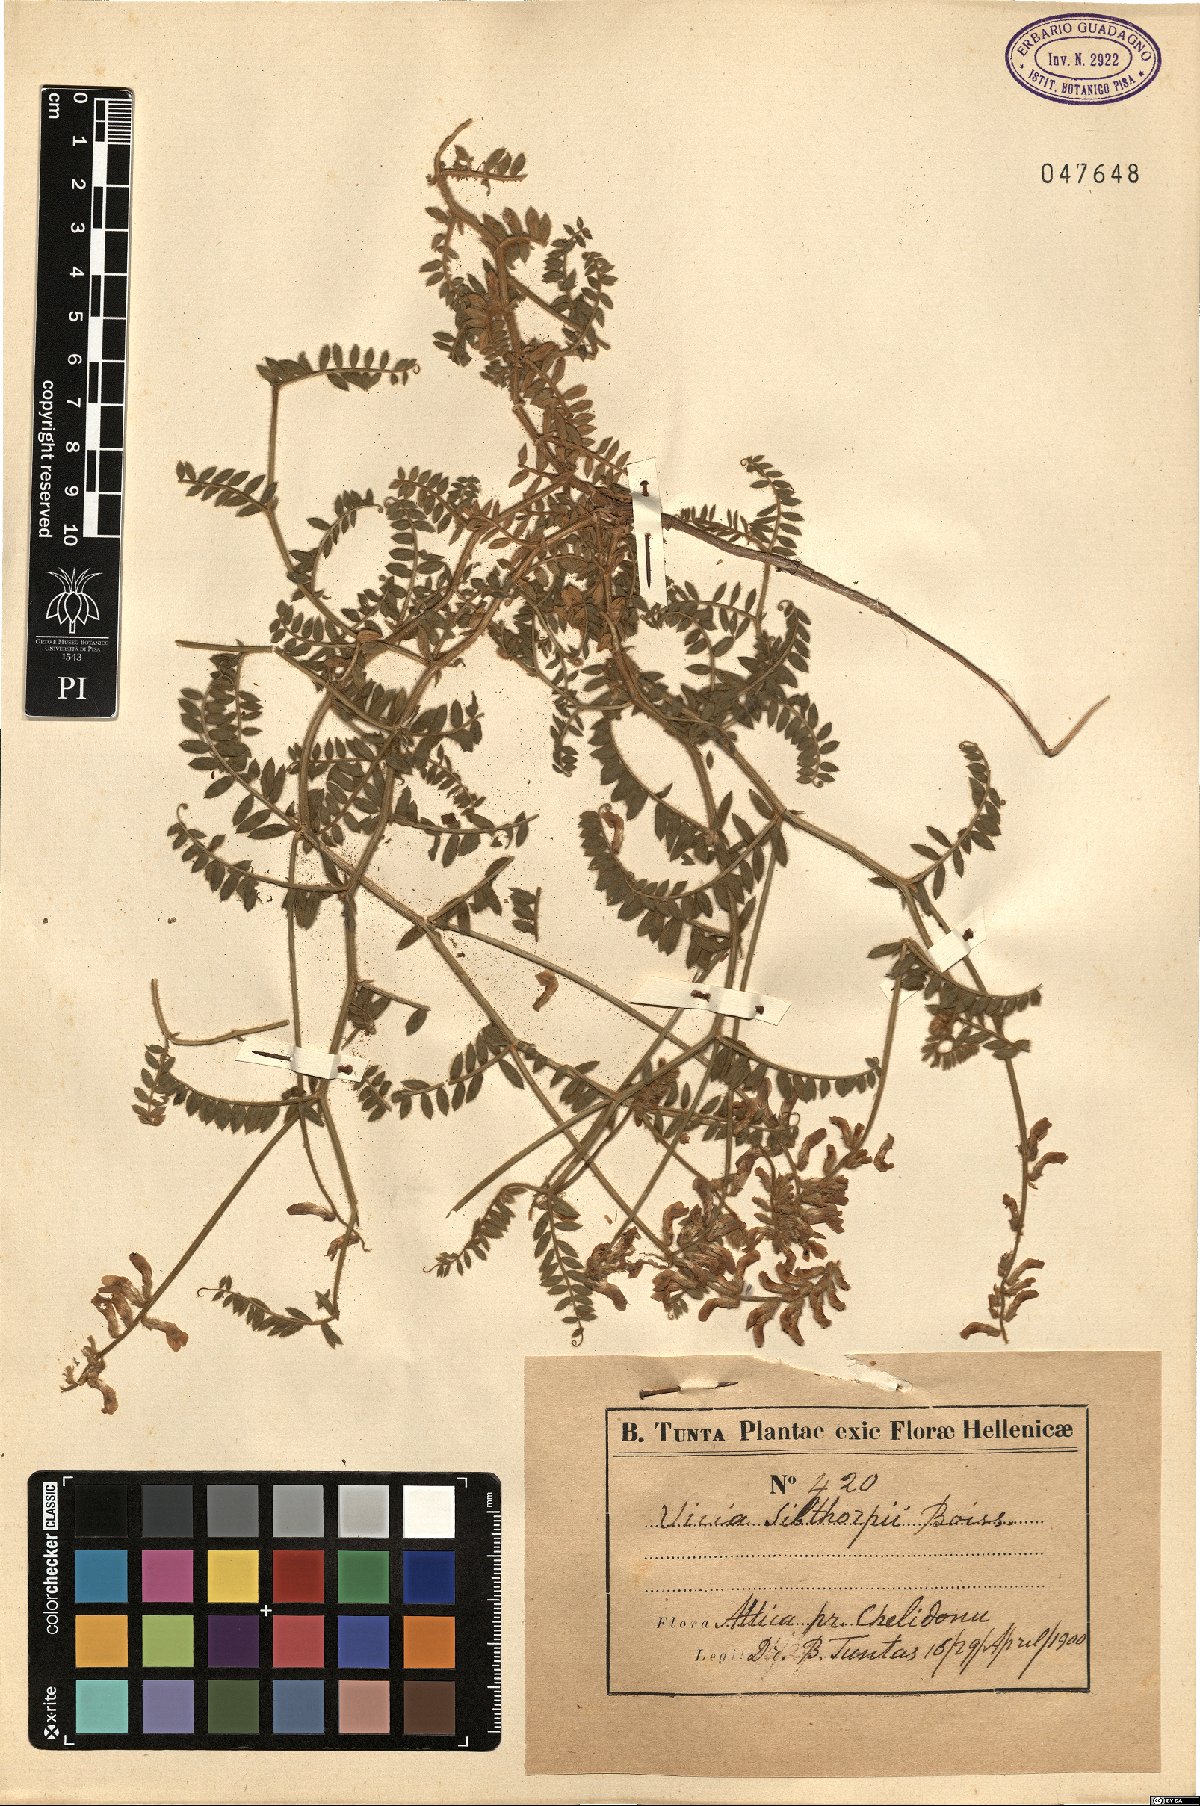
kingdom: Plantae
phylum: Tracheophyta
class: Magnoliopsida
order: Fabales
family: Fabaceae
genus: Vicia
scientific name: Vicia sibthorpii
